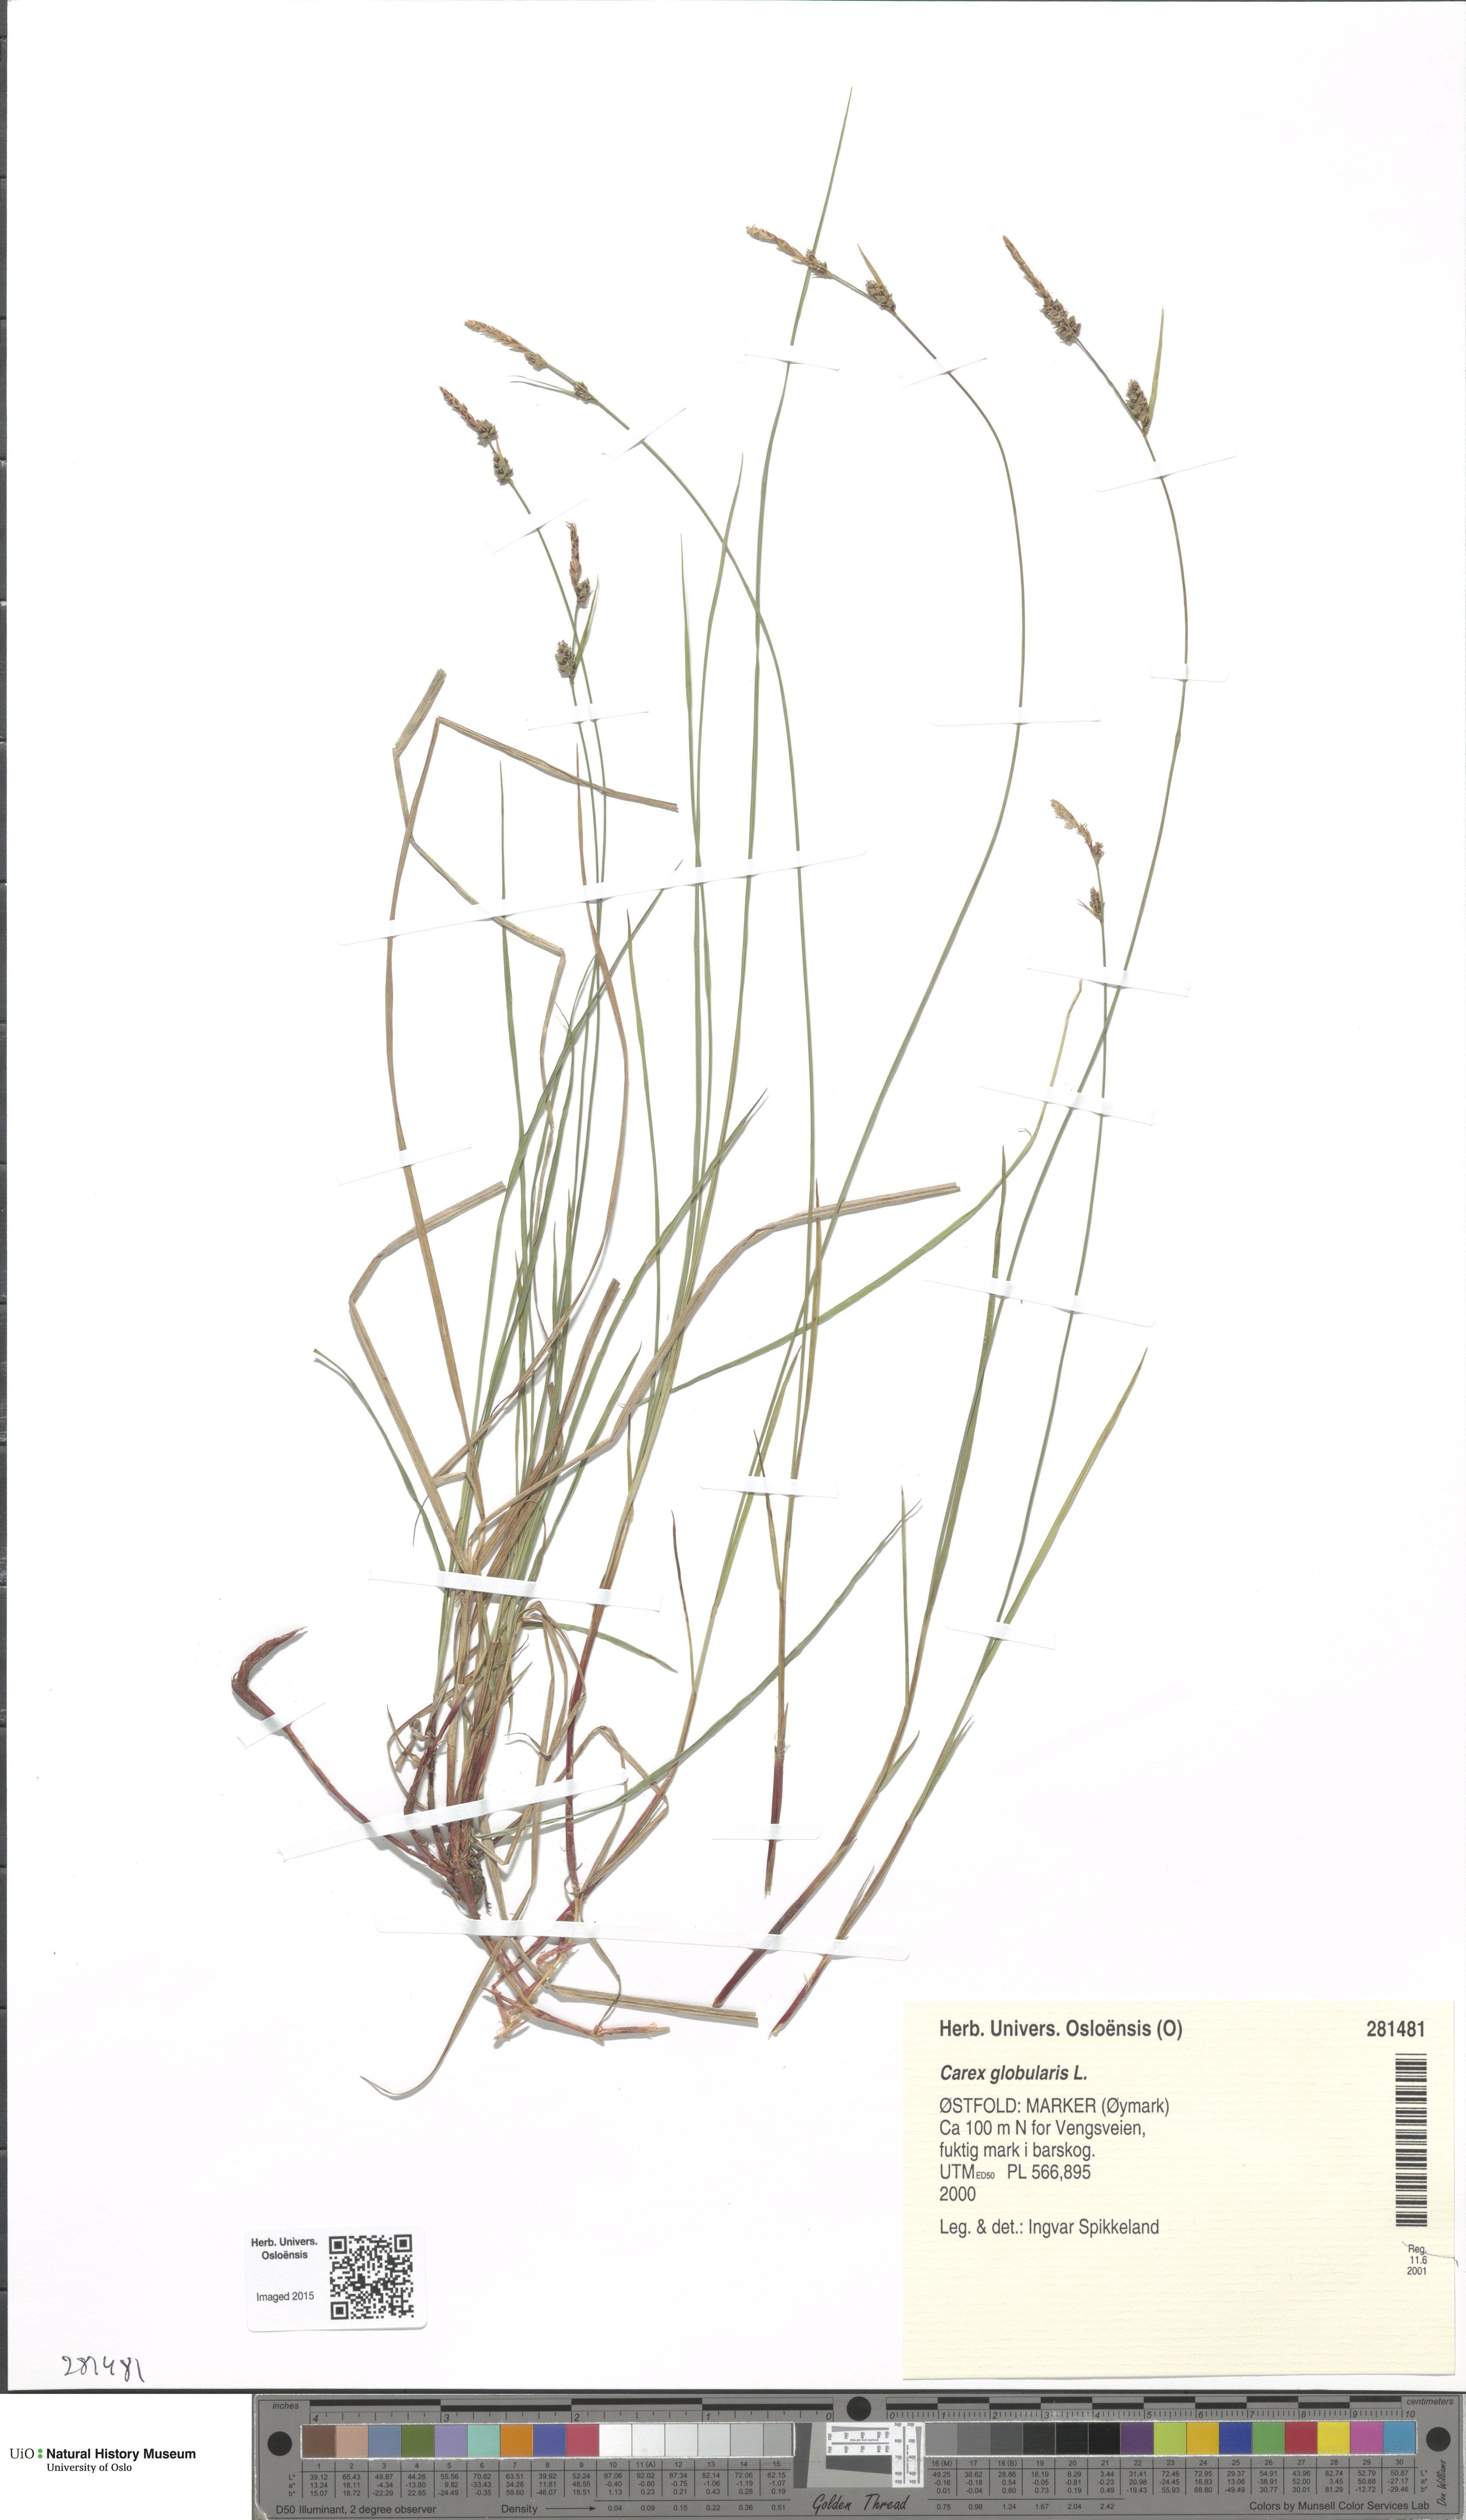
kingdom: Plantae
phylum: Tracheophyta
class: Liliopsida
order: Poales
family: Cyperaceae
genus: Carex
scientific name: Carex globularis
